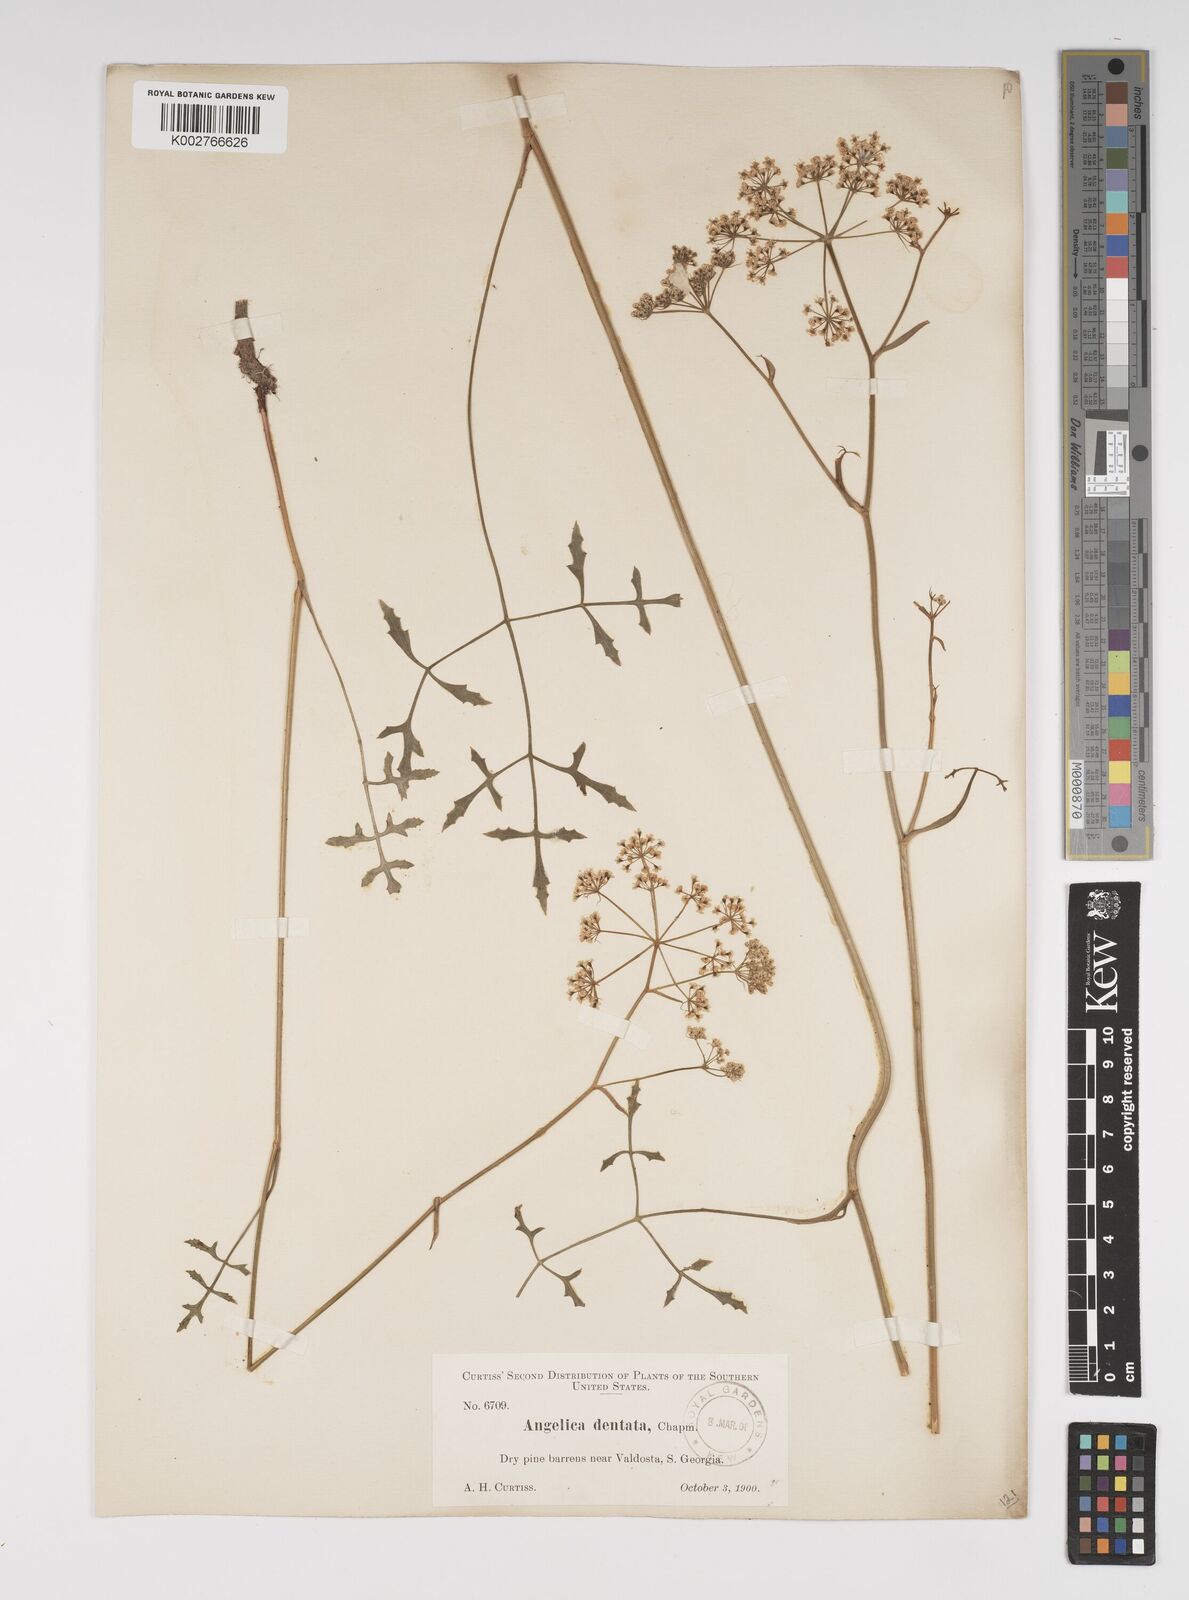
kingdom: Plantae
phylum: Tracheophyta
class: Magnoliopsida
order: Apiales
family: Apiaceae
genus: Angelica
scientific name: Angelica venenosa
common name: Hairy angelica
